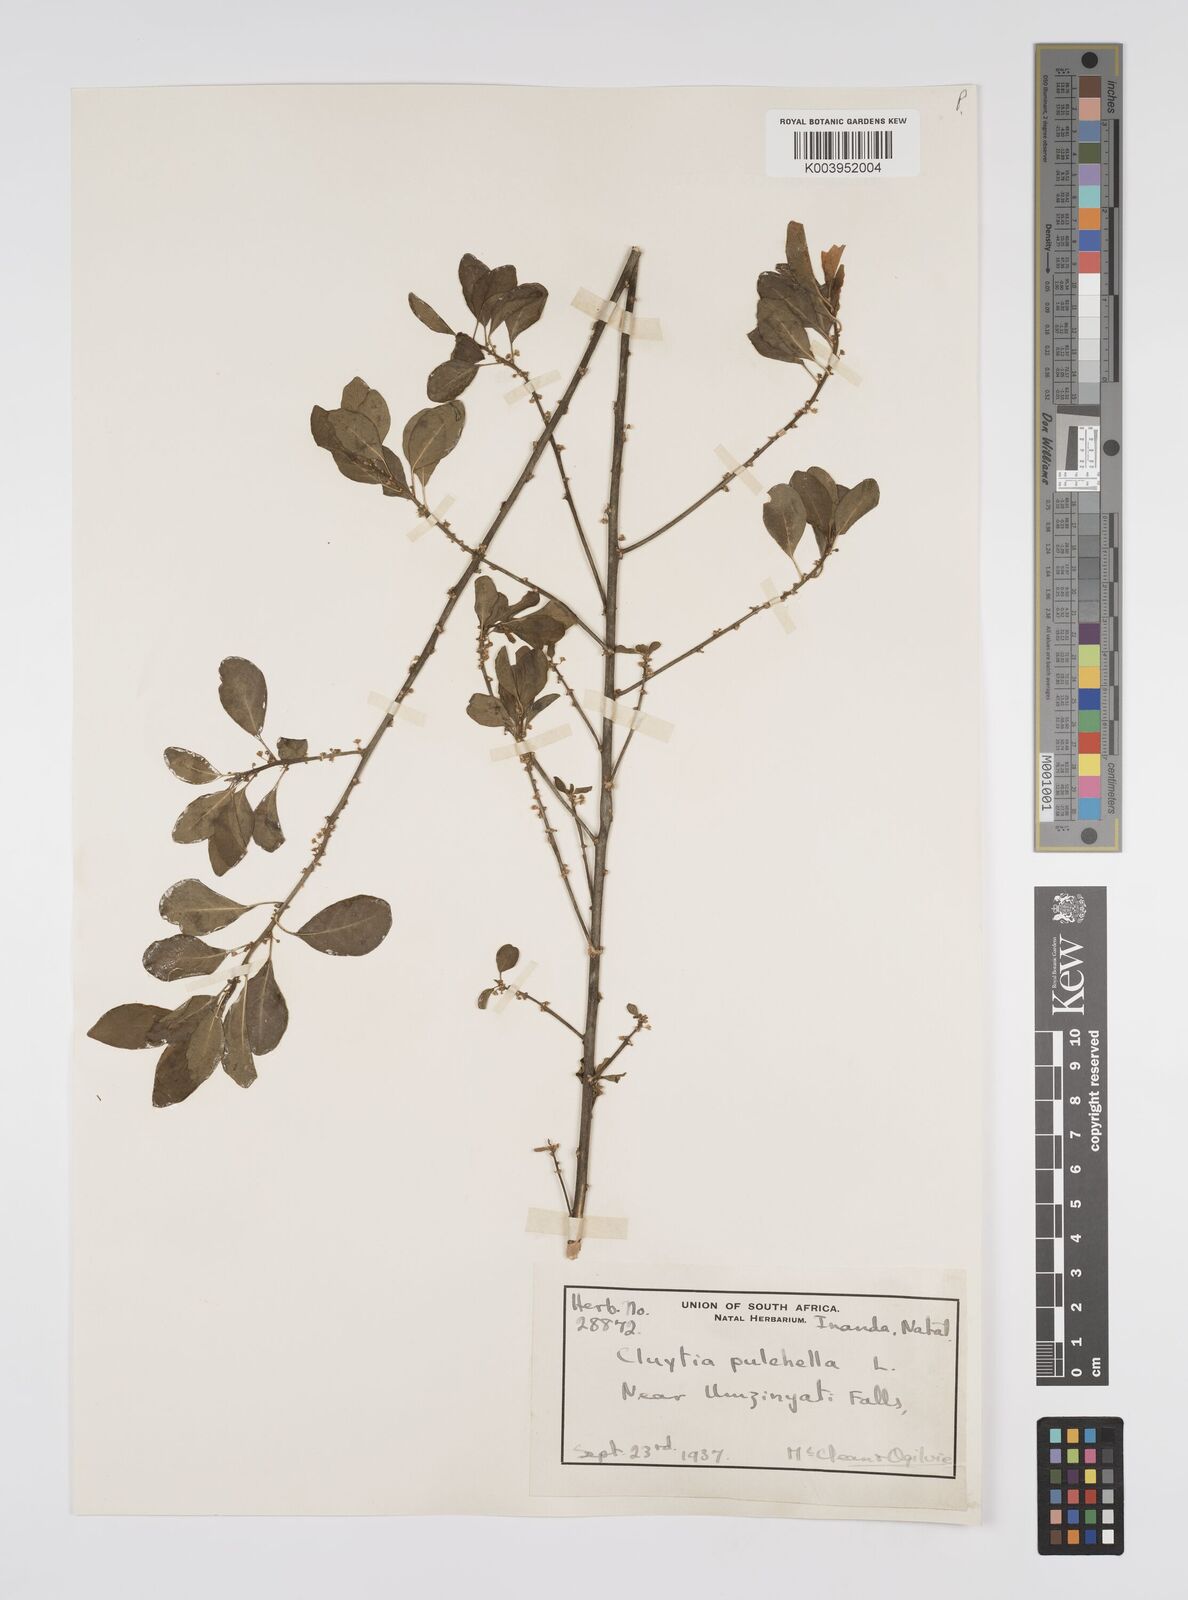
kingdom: Plantae
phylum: Tracheophyta
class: Magnoliopsida
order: Malpighiales
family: Peraceae
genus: Clutia
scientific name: Clutia pulchella
